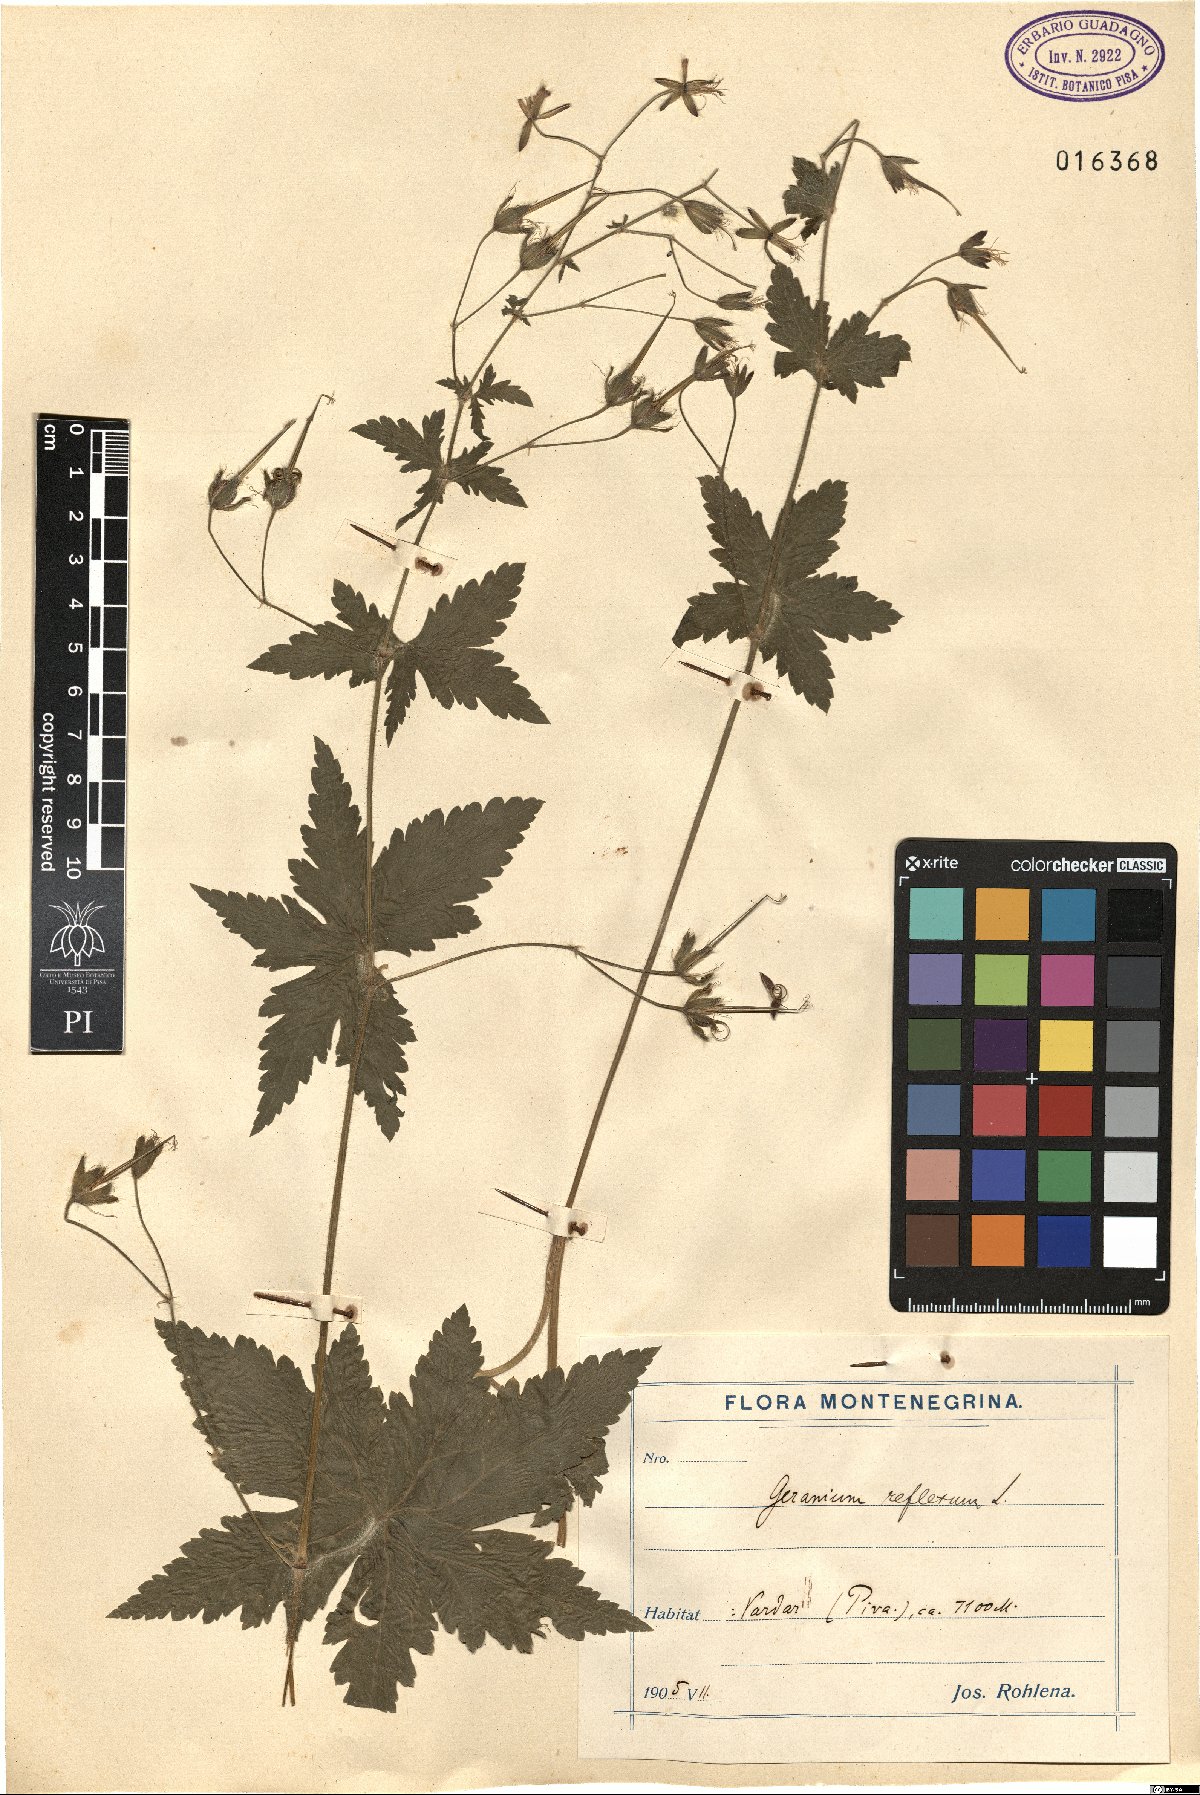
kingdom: Plantae
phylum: Tracheophyta
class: Magnoliopsida
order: Geraniales
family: Geraniaceae
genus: Geranium
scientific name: Geranium reflexum
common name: Reflexed crane's-bill
